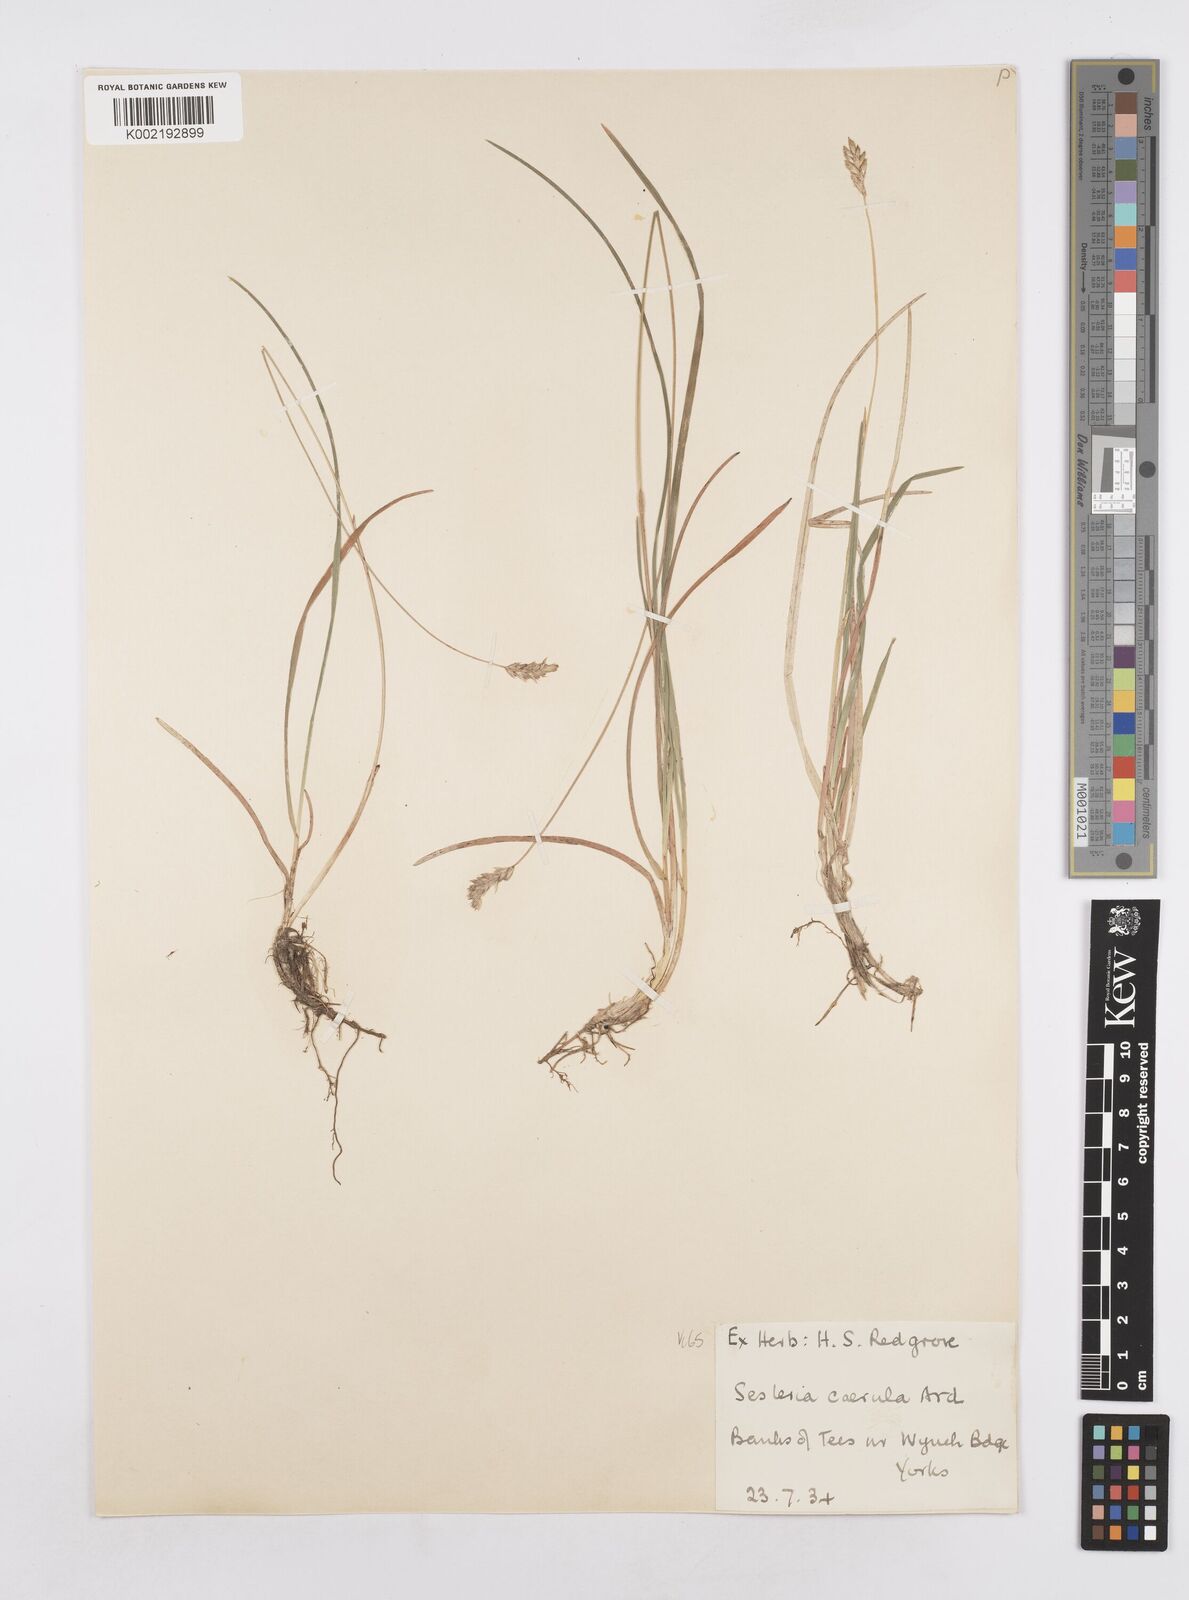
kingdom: Plantae
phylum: Tracheophyta
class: Liliopsida
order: Poales
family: Poaceae
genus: Sesleria
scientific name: Sesleria caerulea
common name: Blue moor-grass
